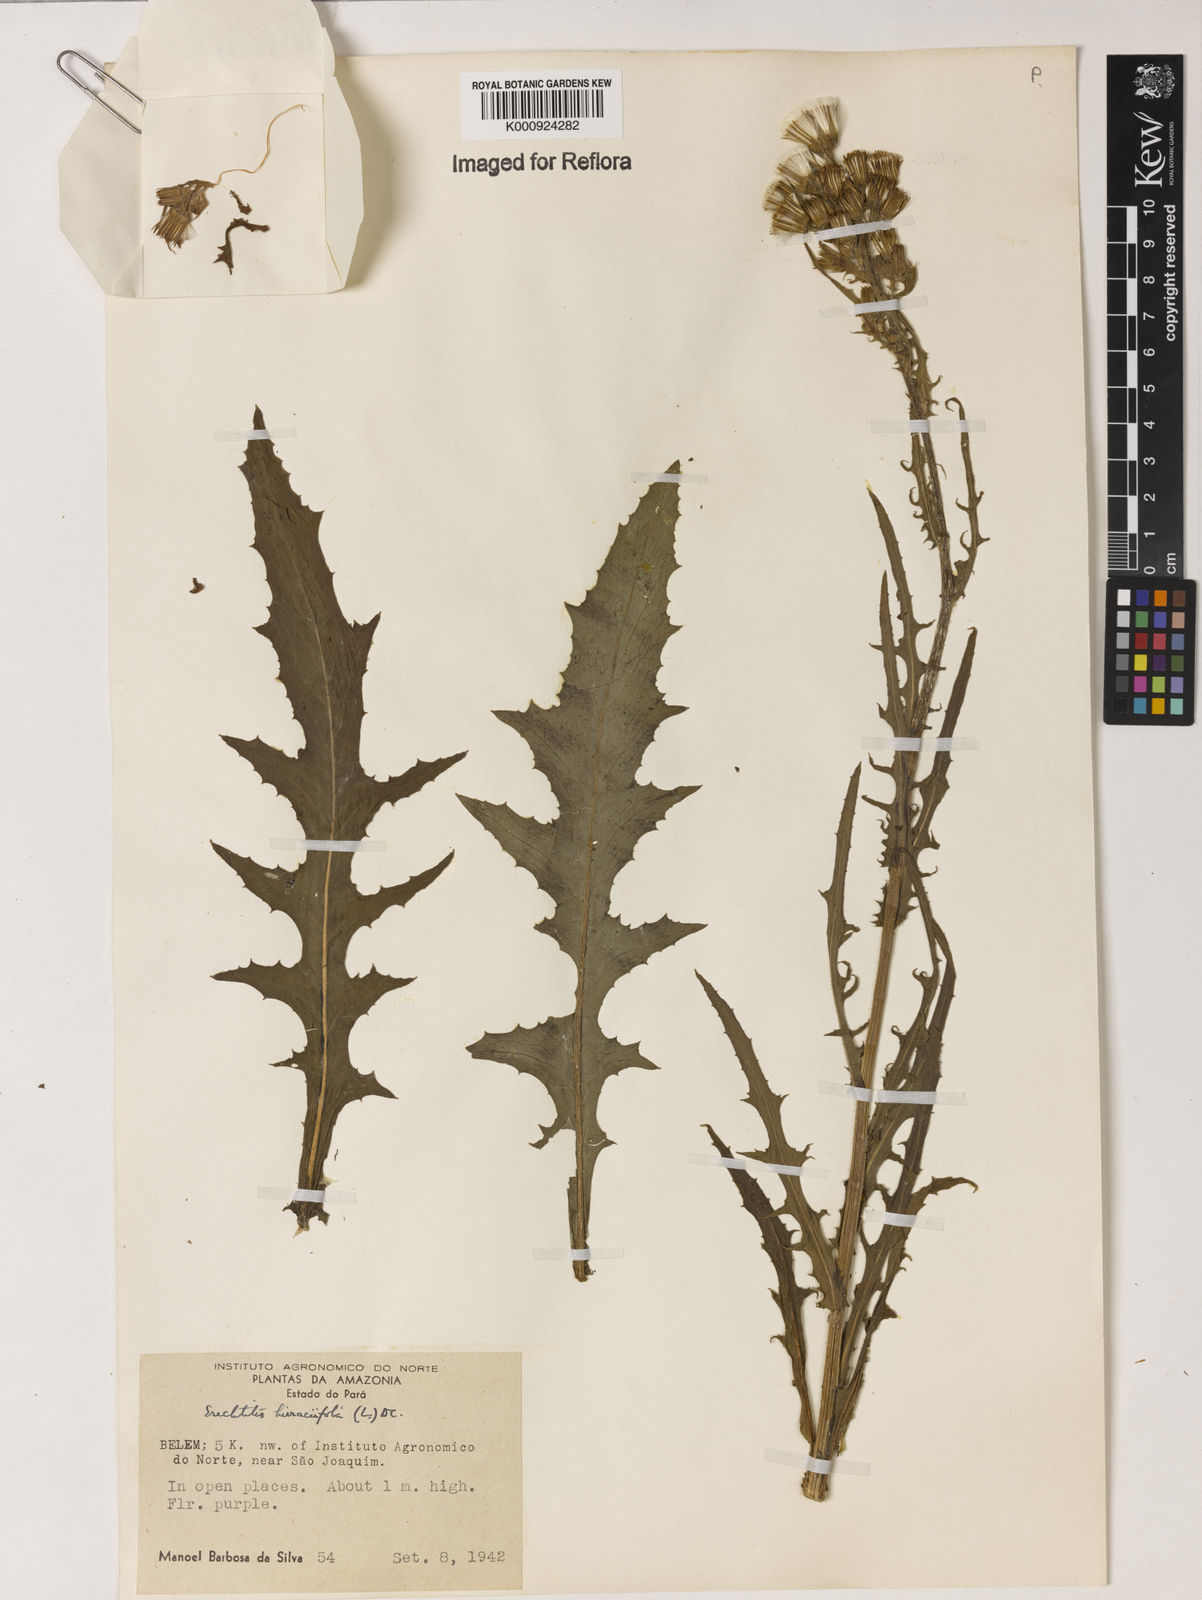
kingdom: Plantae
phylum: Tracheophyta
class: Magnoliopsida
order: Asterales
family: Asteraceae
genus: Erechtites
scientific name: Erechtites hieraciifolius
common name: American burnweed
